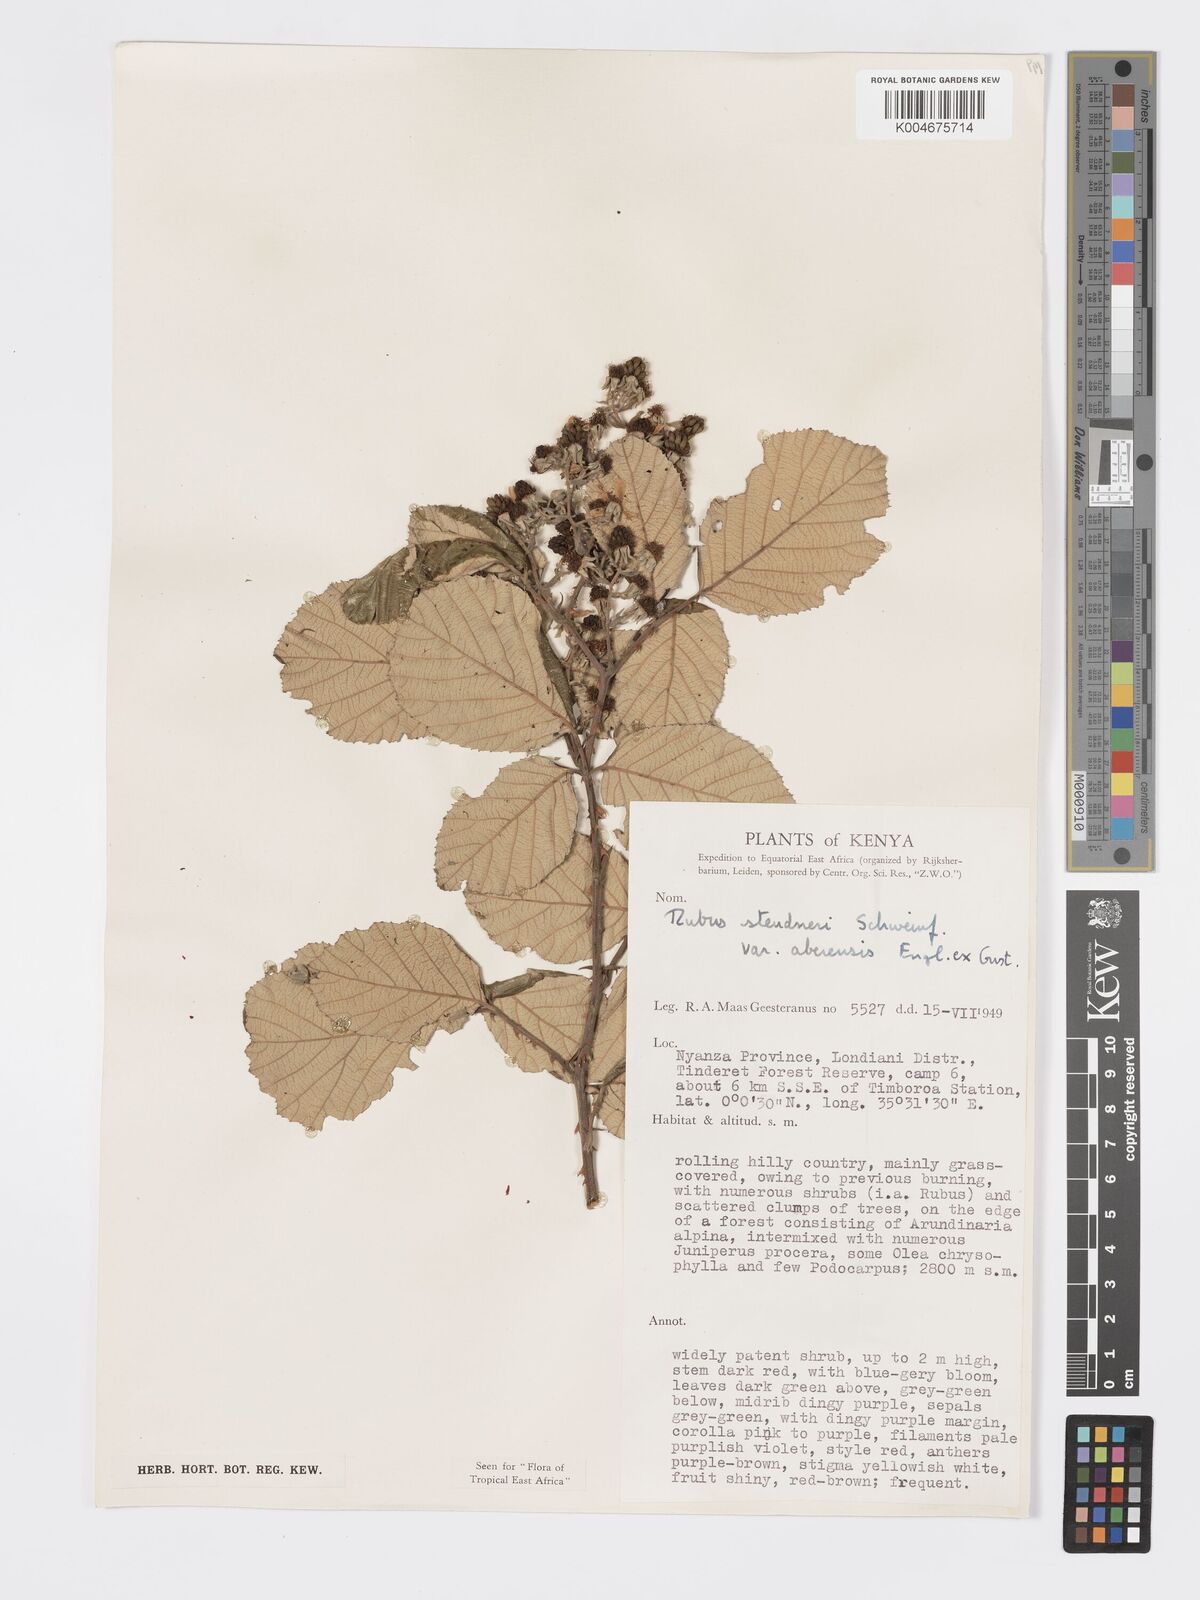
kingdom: Plantae
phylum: Tracheophyta
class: Magnoliopsida
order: Rosales
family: Rosaceae
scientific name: Rosaceae
